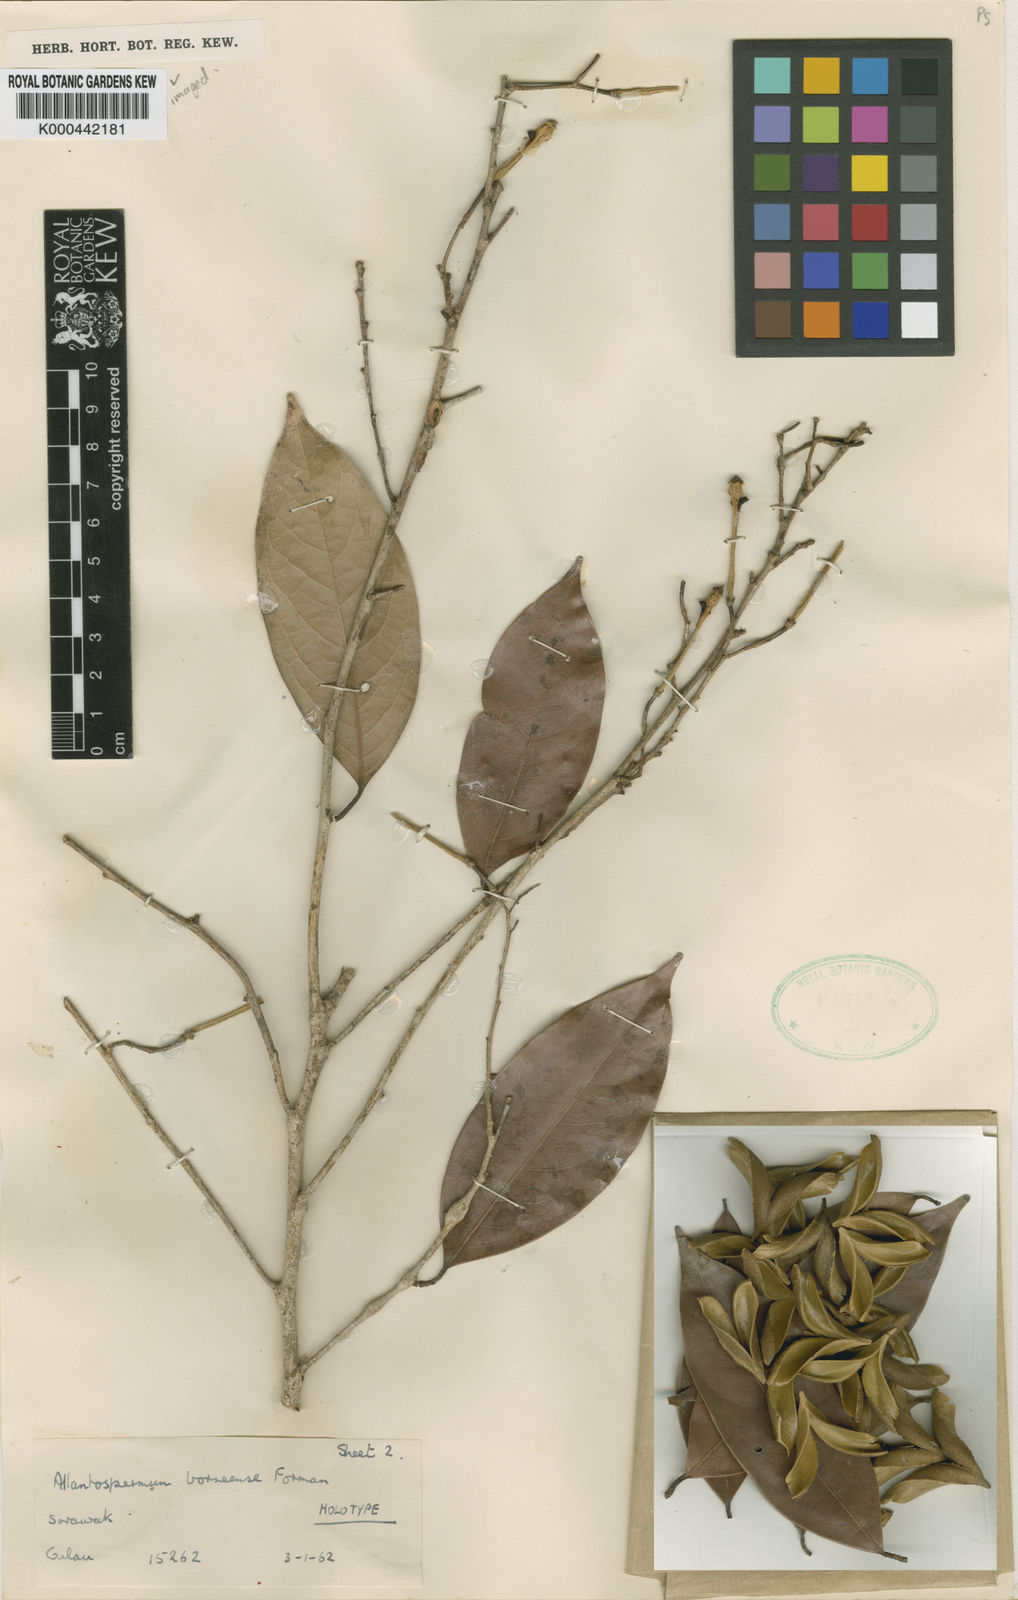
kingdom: Plantae
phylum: Tracheophyta
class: Magnoliopsida
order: Malpighiales
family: Ixonanthaceae
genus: Allantospermum
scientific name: Allantospermum borneense
